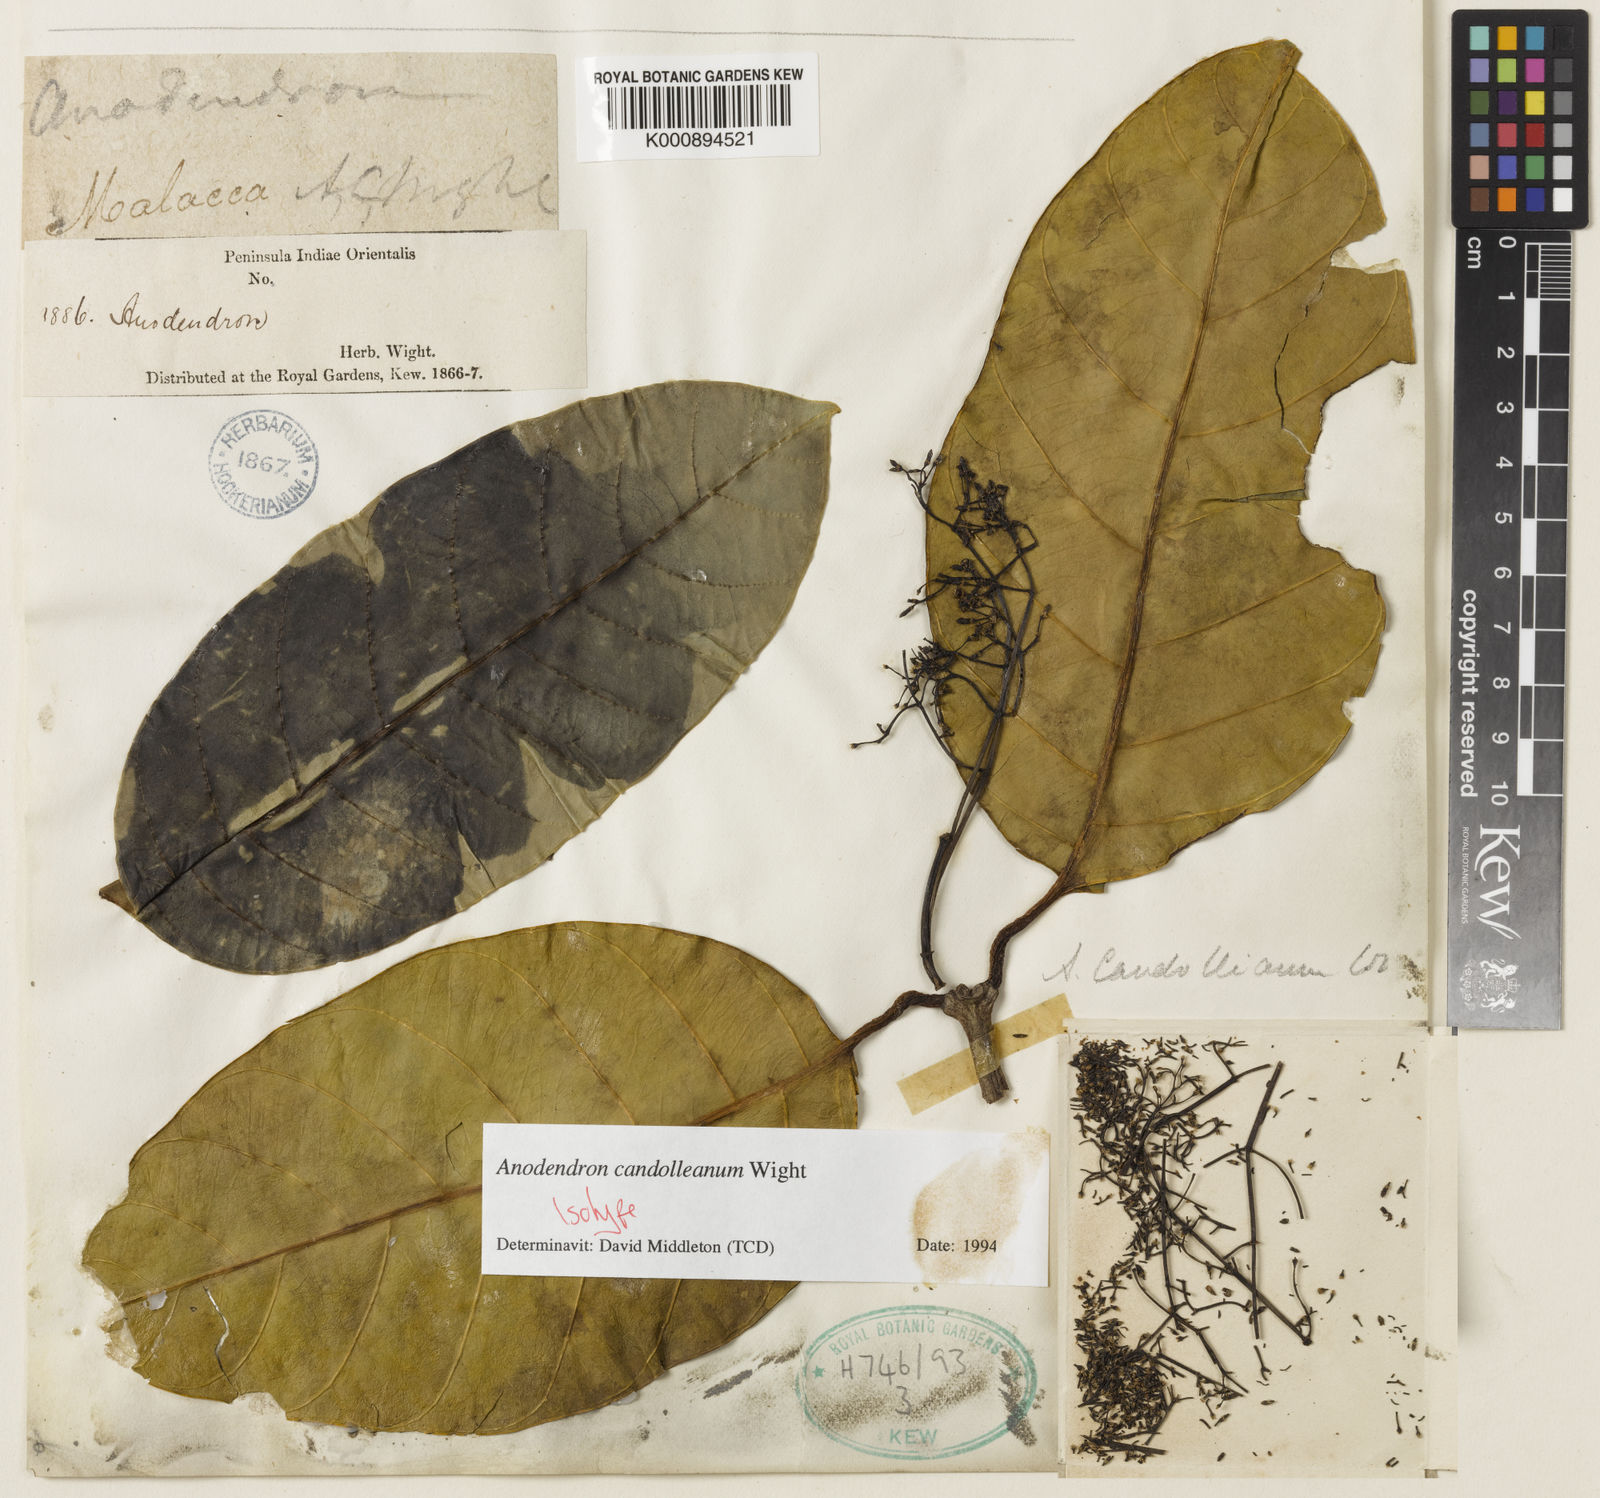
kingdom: Plantae
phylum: Tracheophyta
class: Magnoliopsida
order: Gentianales
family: Apocynaceae
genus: Anodendron
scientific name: Anodendron candolleanum
